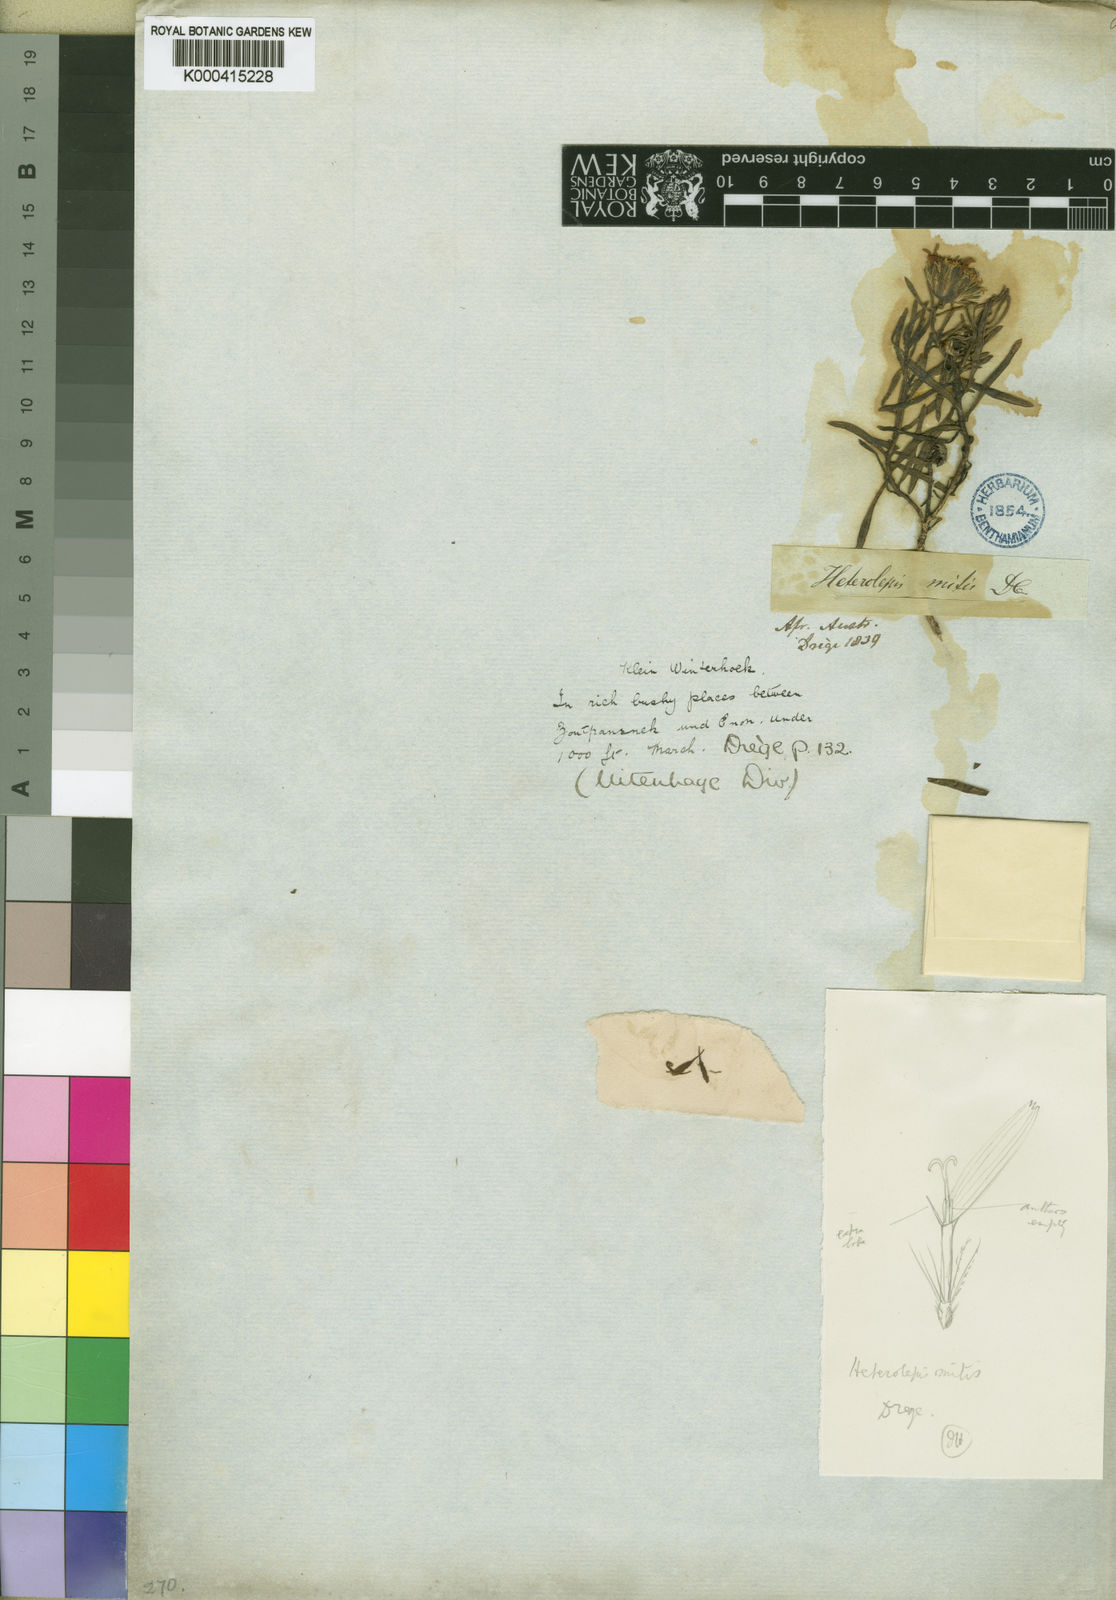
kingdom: Plantae
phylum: Tracheophyta
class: Magnoliopsida
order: Asterales
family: Asteraceae
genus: Heterolepis
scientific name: Heterolepis mitis
